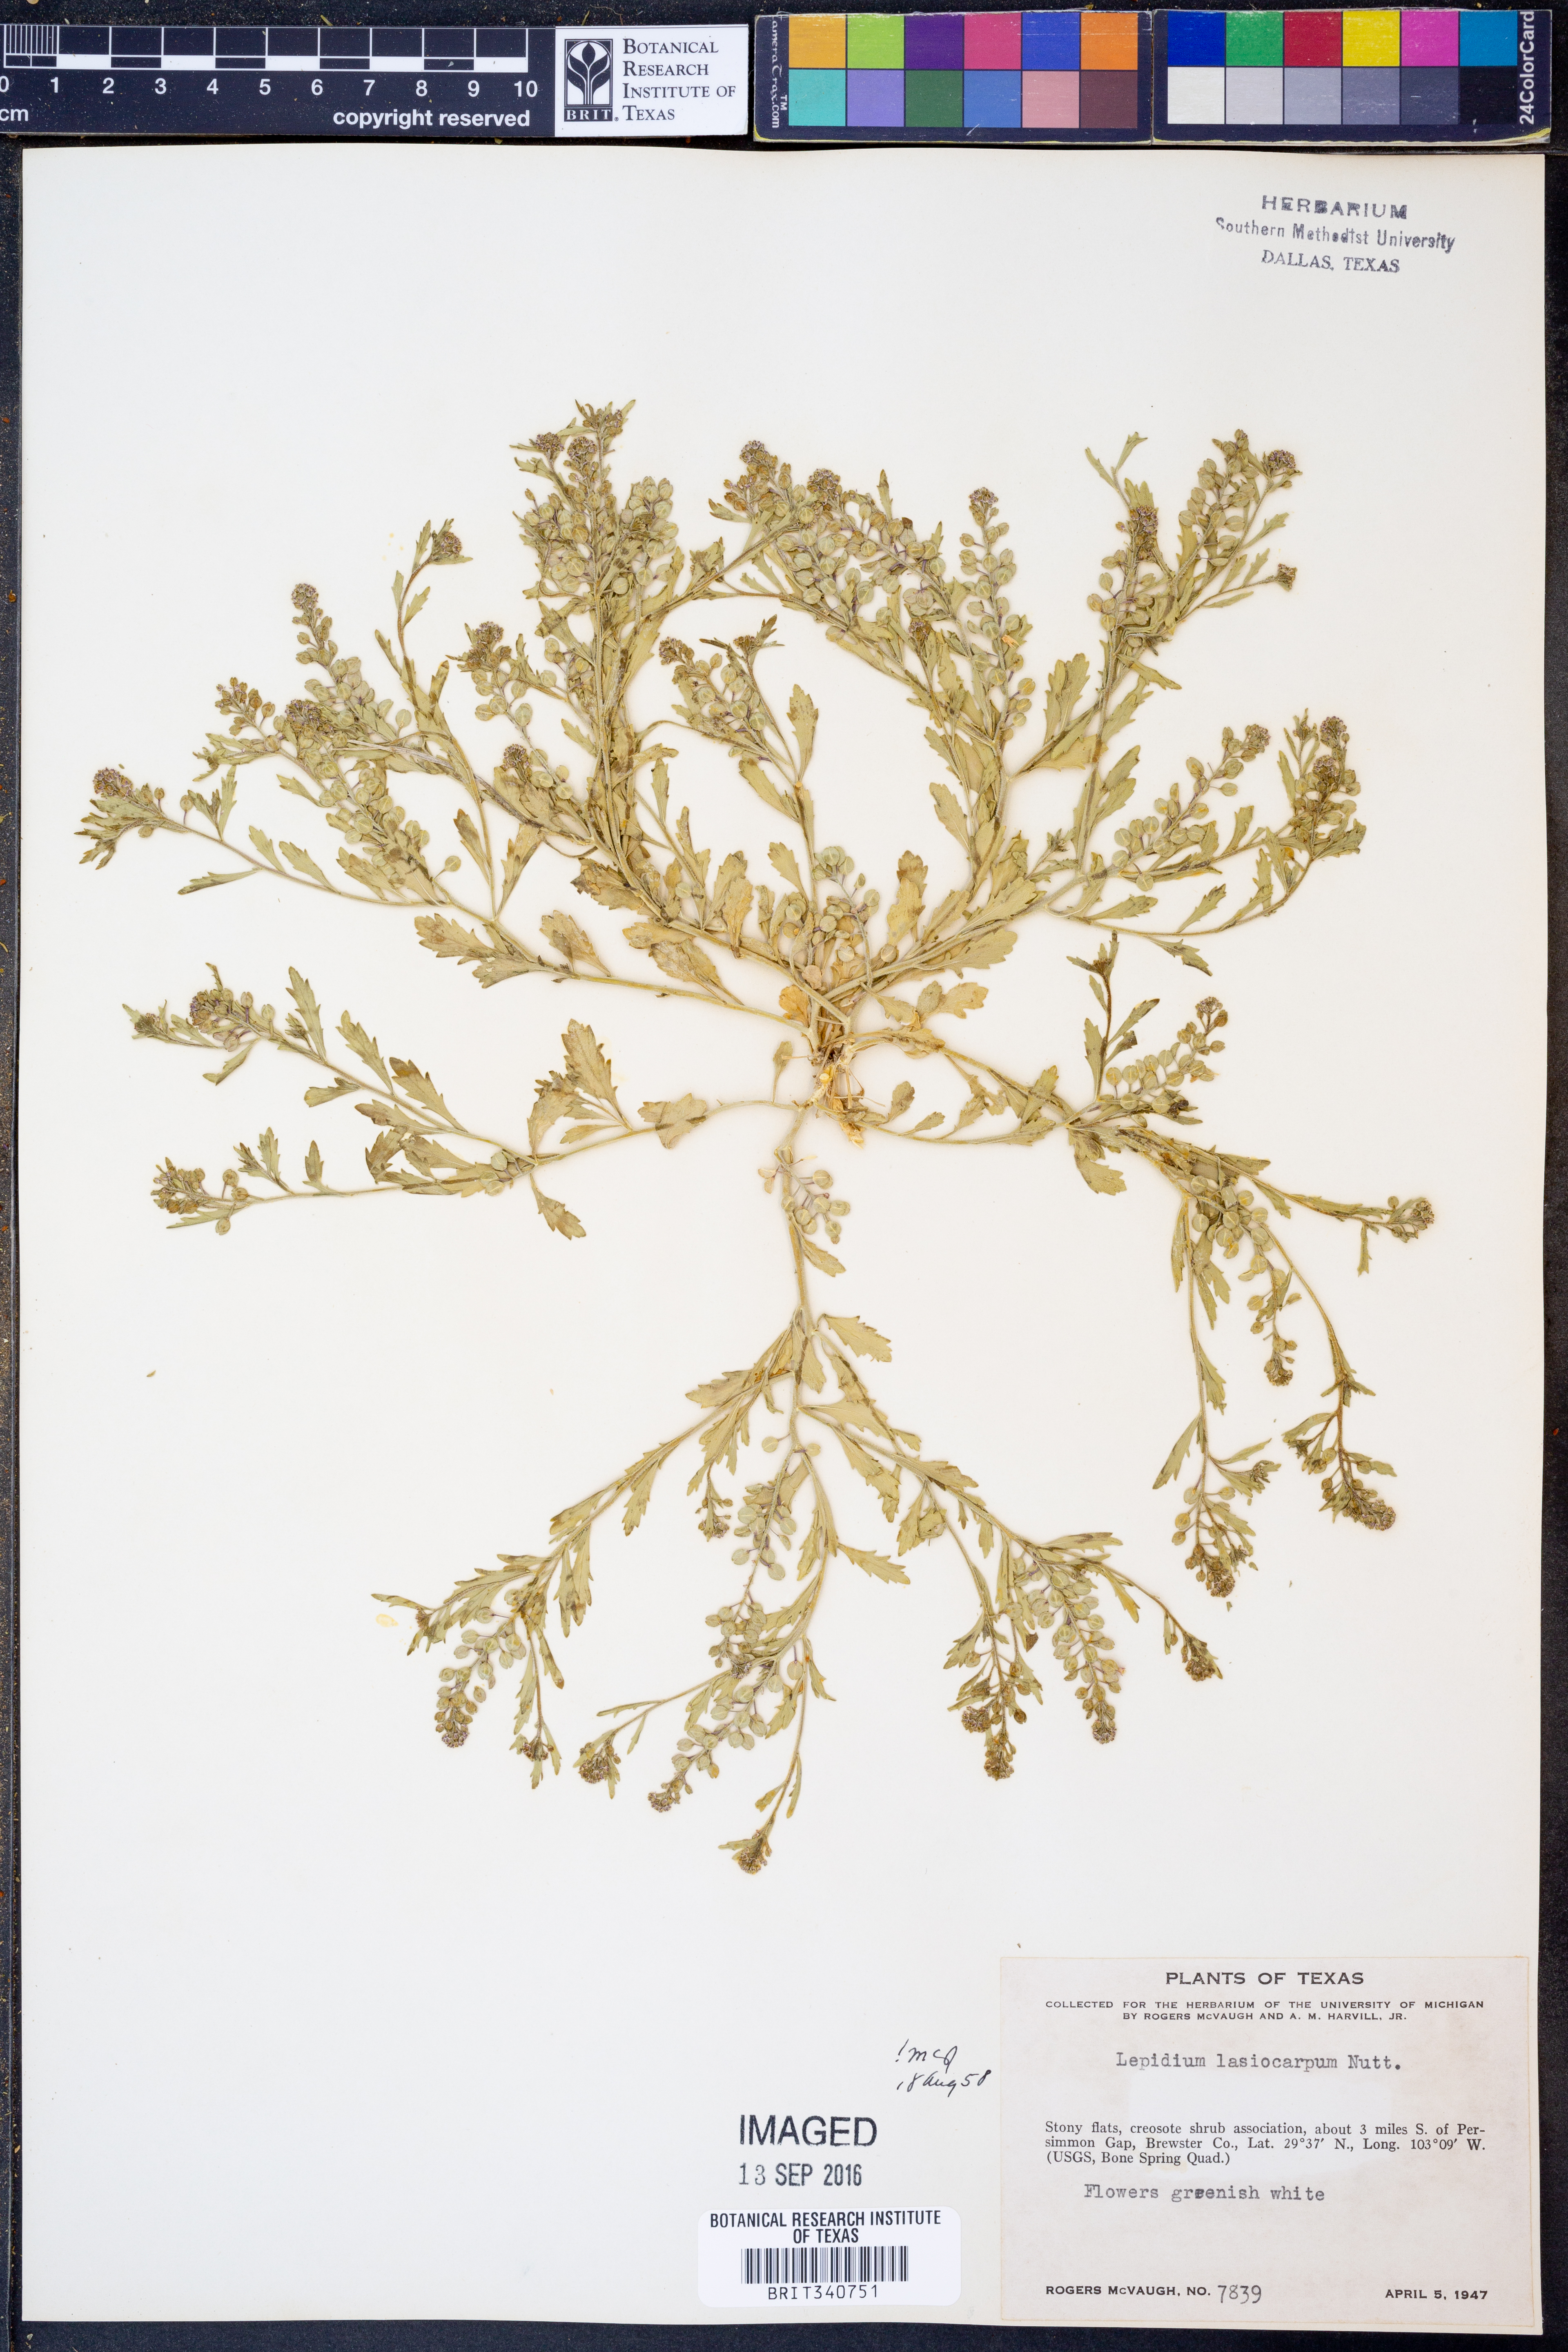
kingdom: Plantae
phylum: Tracheophyta
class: Magnoliopsida
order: Brassicales
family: Brassicaceae
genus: Lepidium
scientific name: Lepidium lasiocarpum
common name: Hairy-pod pepperwort
